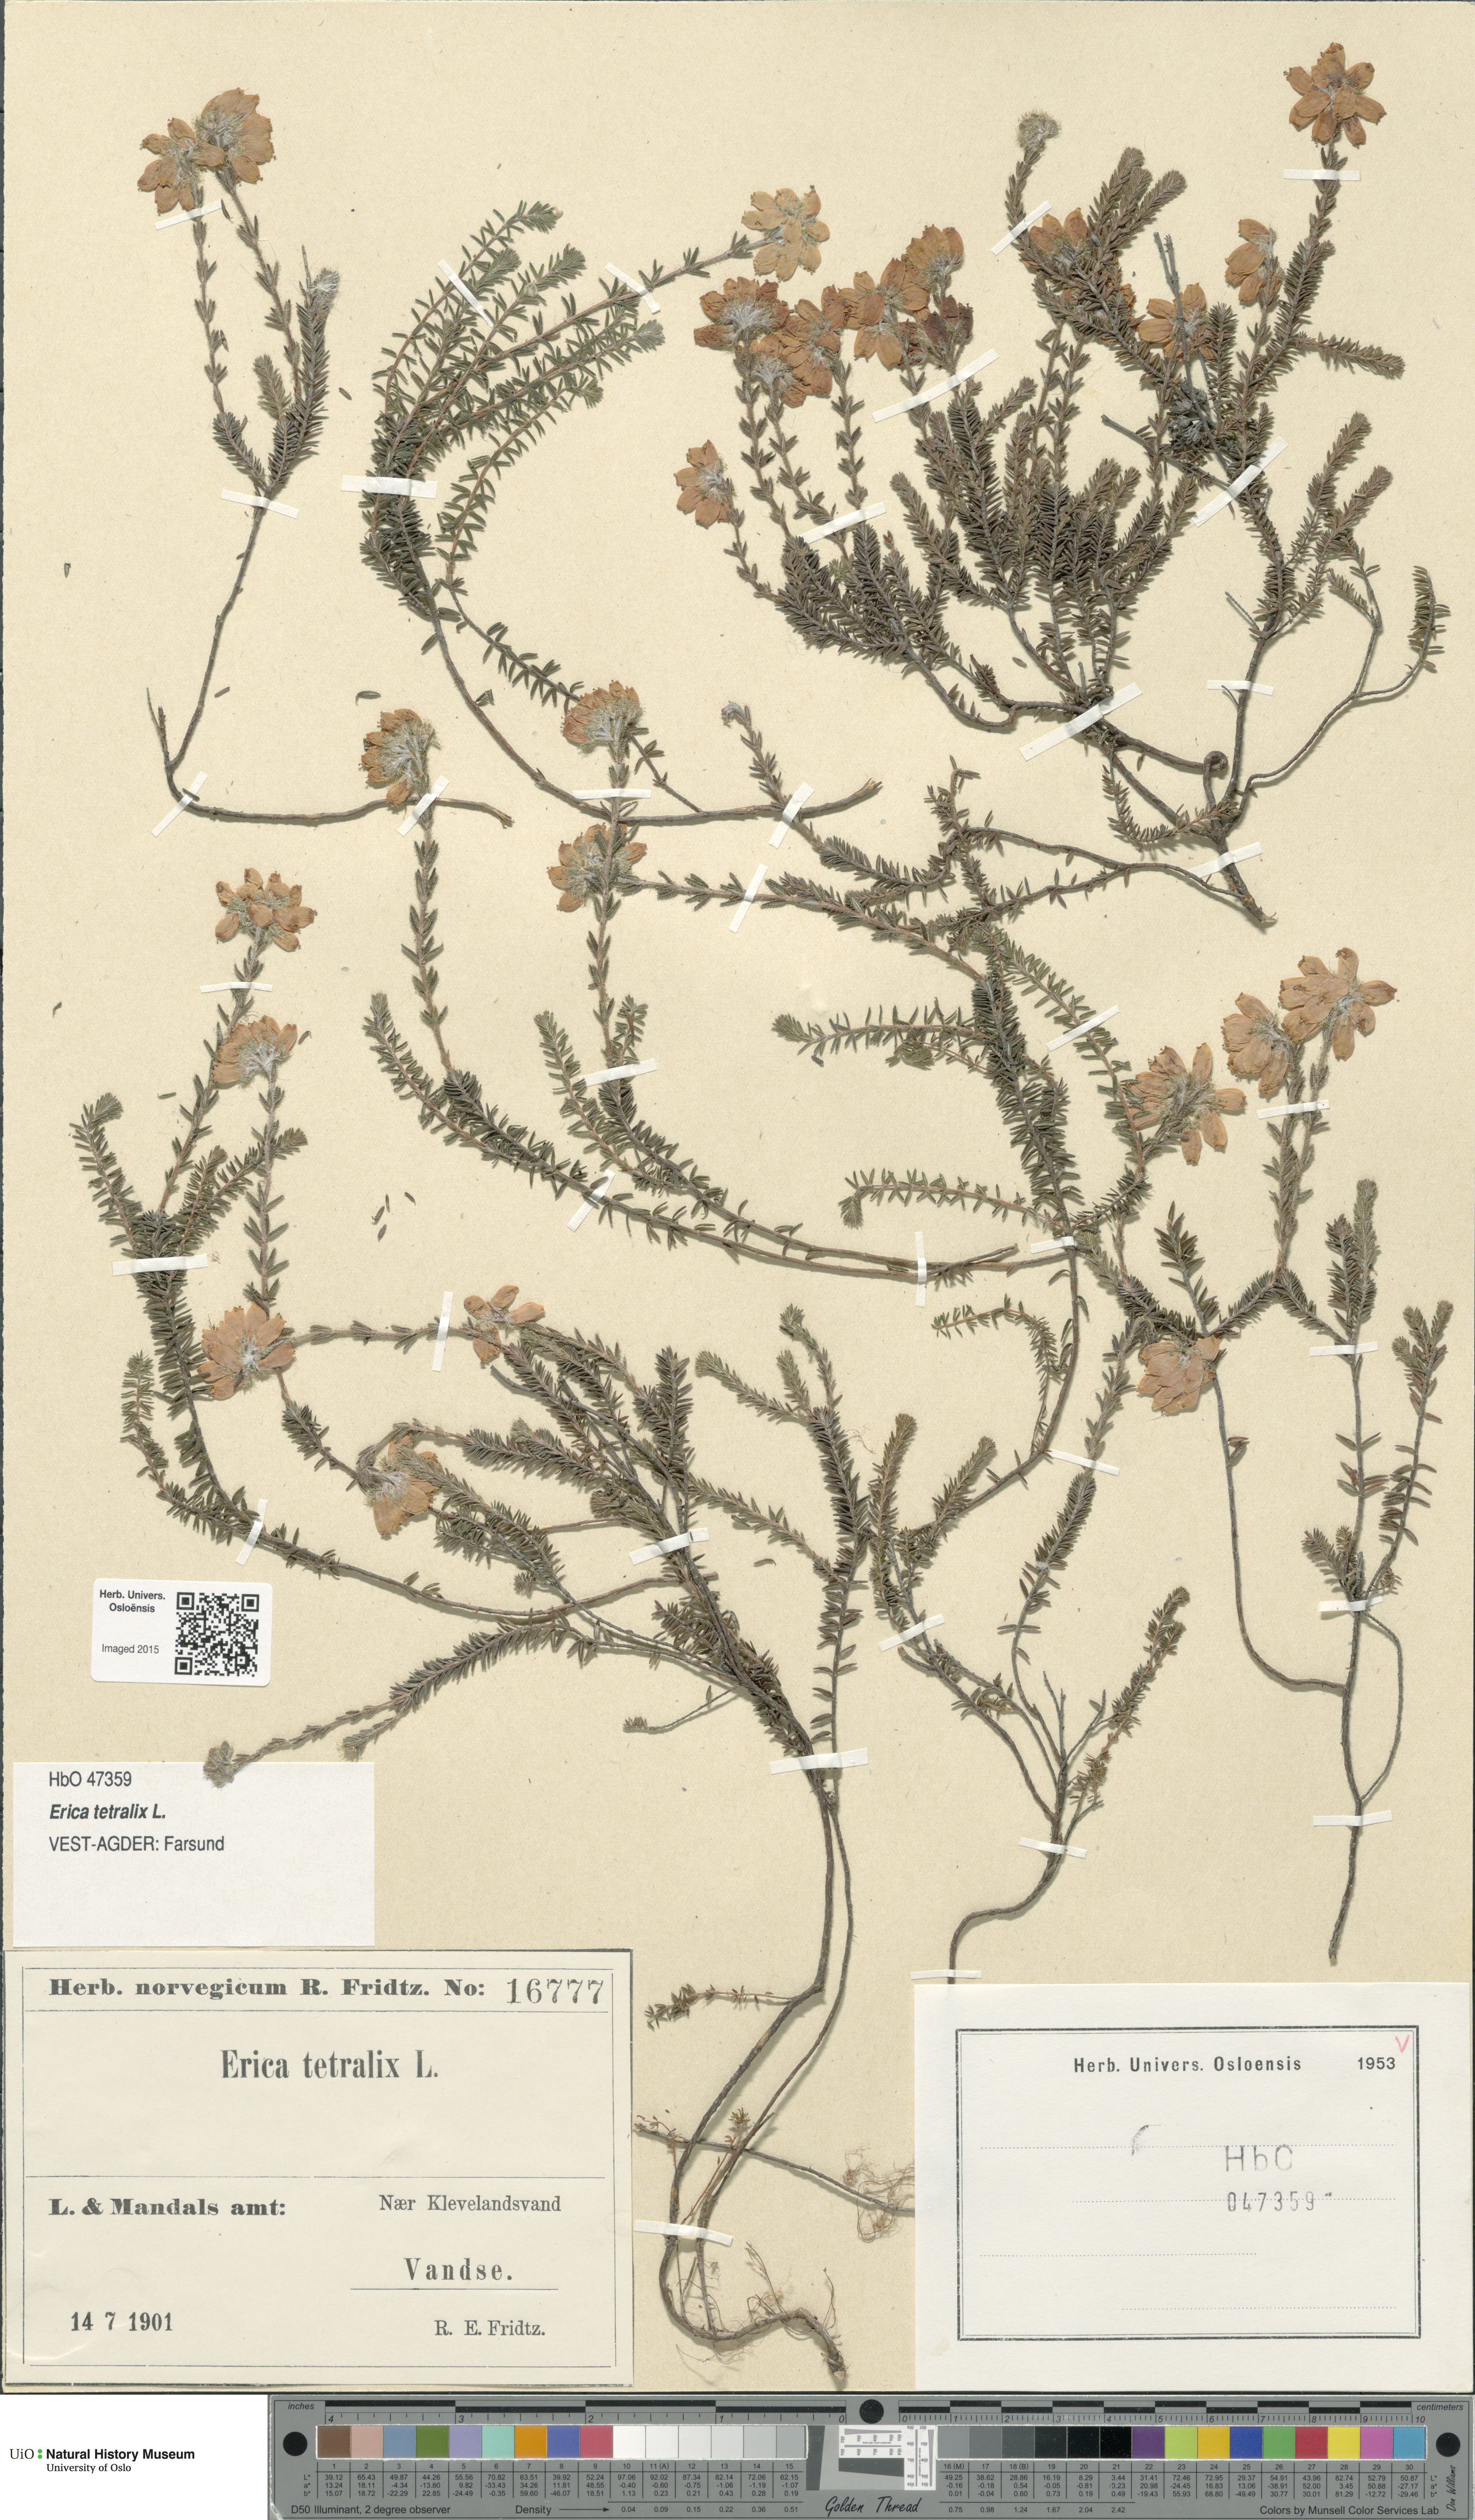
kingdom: Plantae
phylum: Tracheophyta
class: Magnoliopsida
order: Ericales
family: Ericaceae
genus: Erica
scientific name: Erica tetralix
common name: Cross-leaved heath
